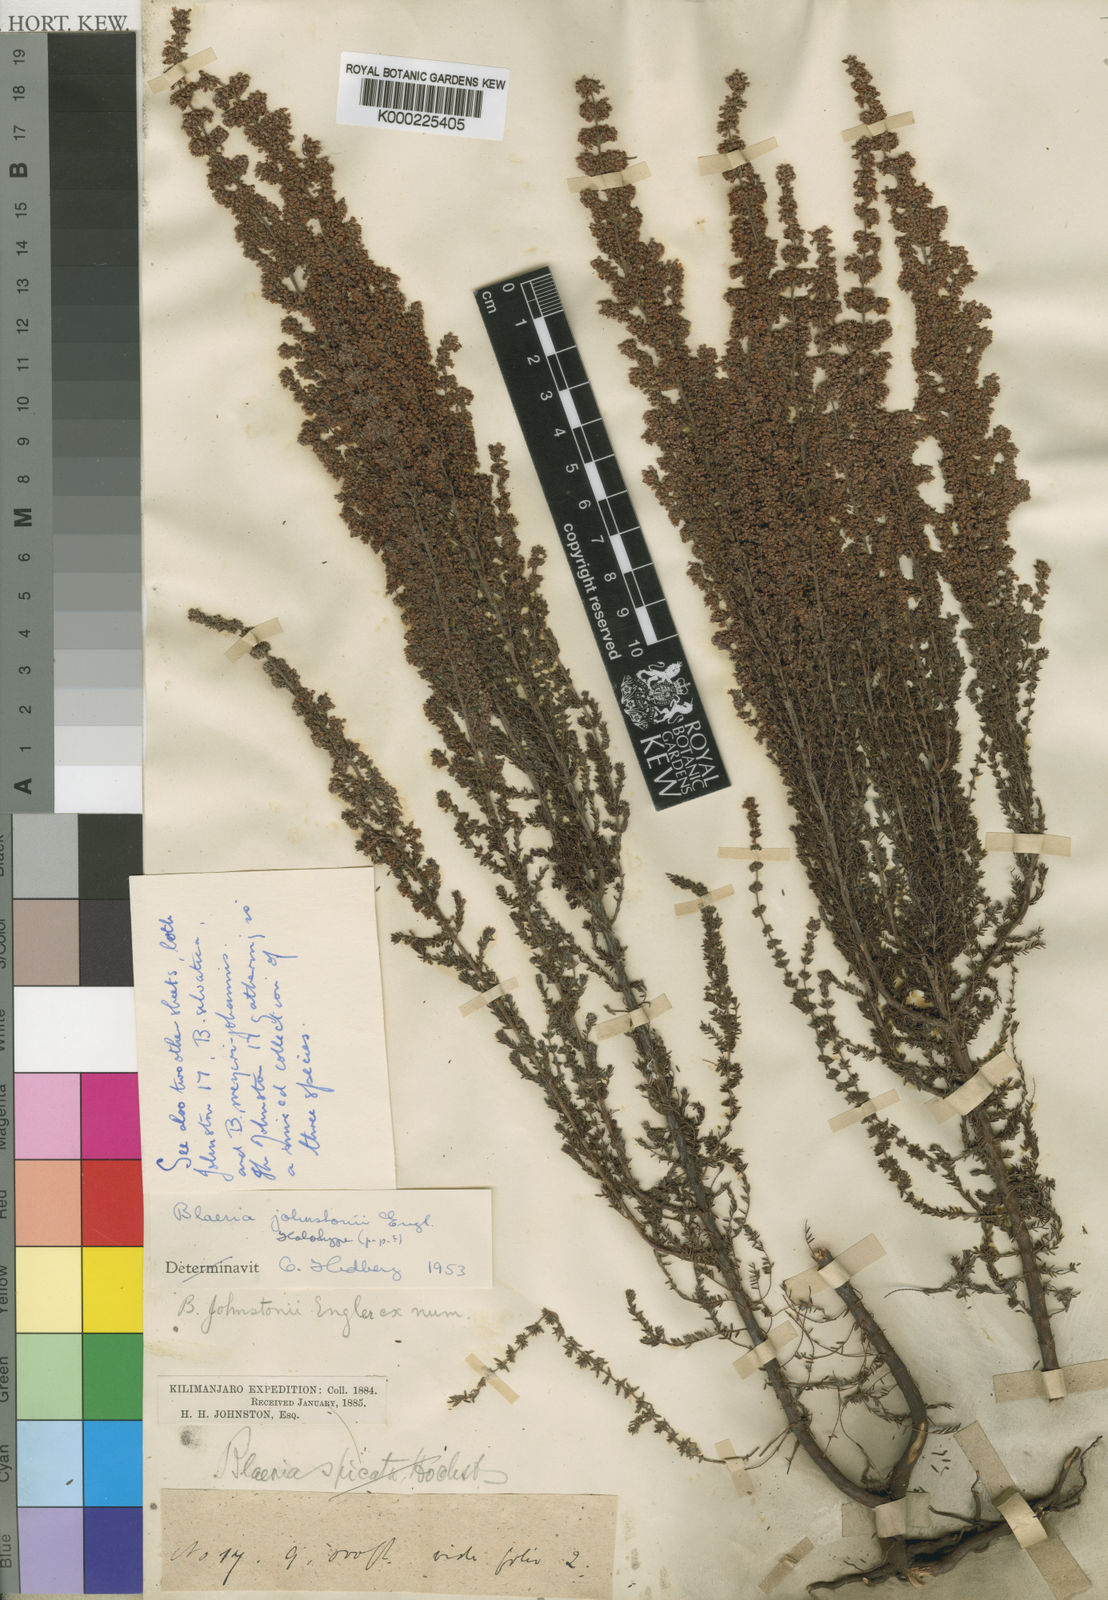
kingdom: Plantae
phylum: Tracheophyta
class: Magnoliopsida
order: Ericales
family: Ericaceae
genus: Erica
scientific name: Erica silvatica
